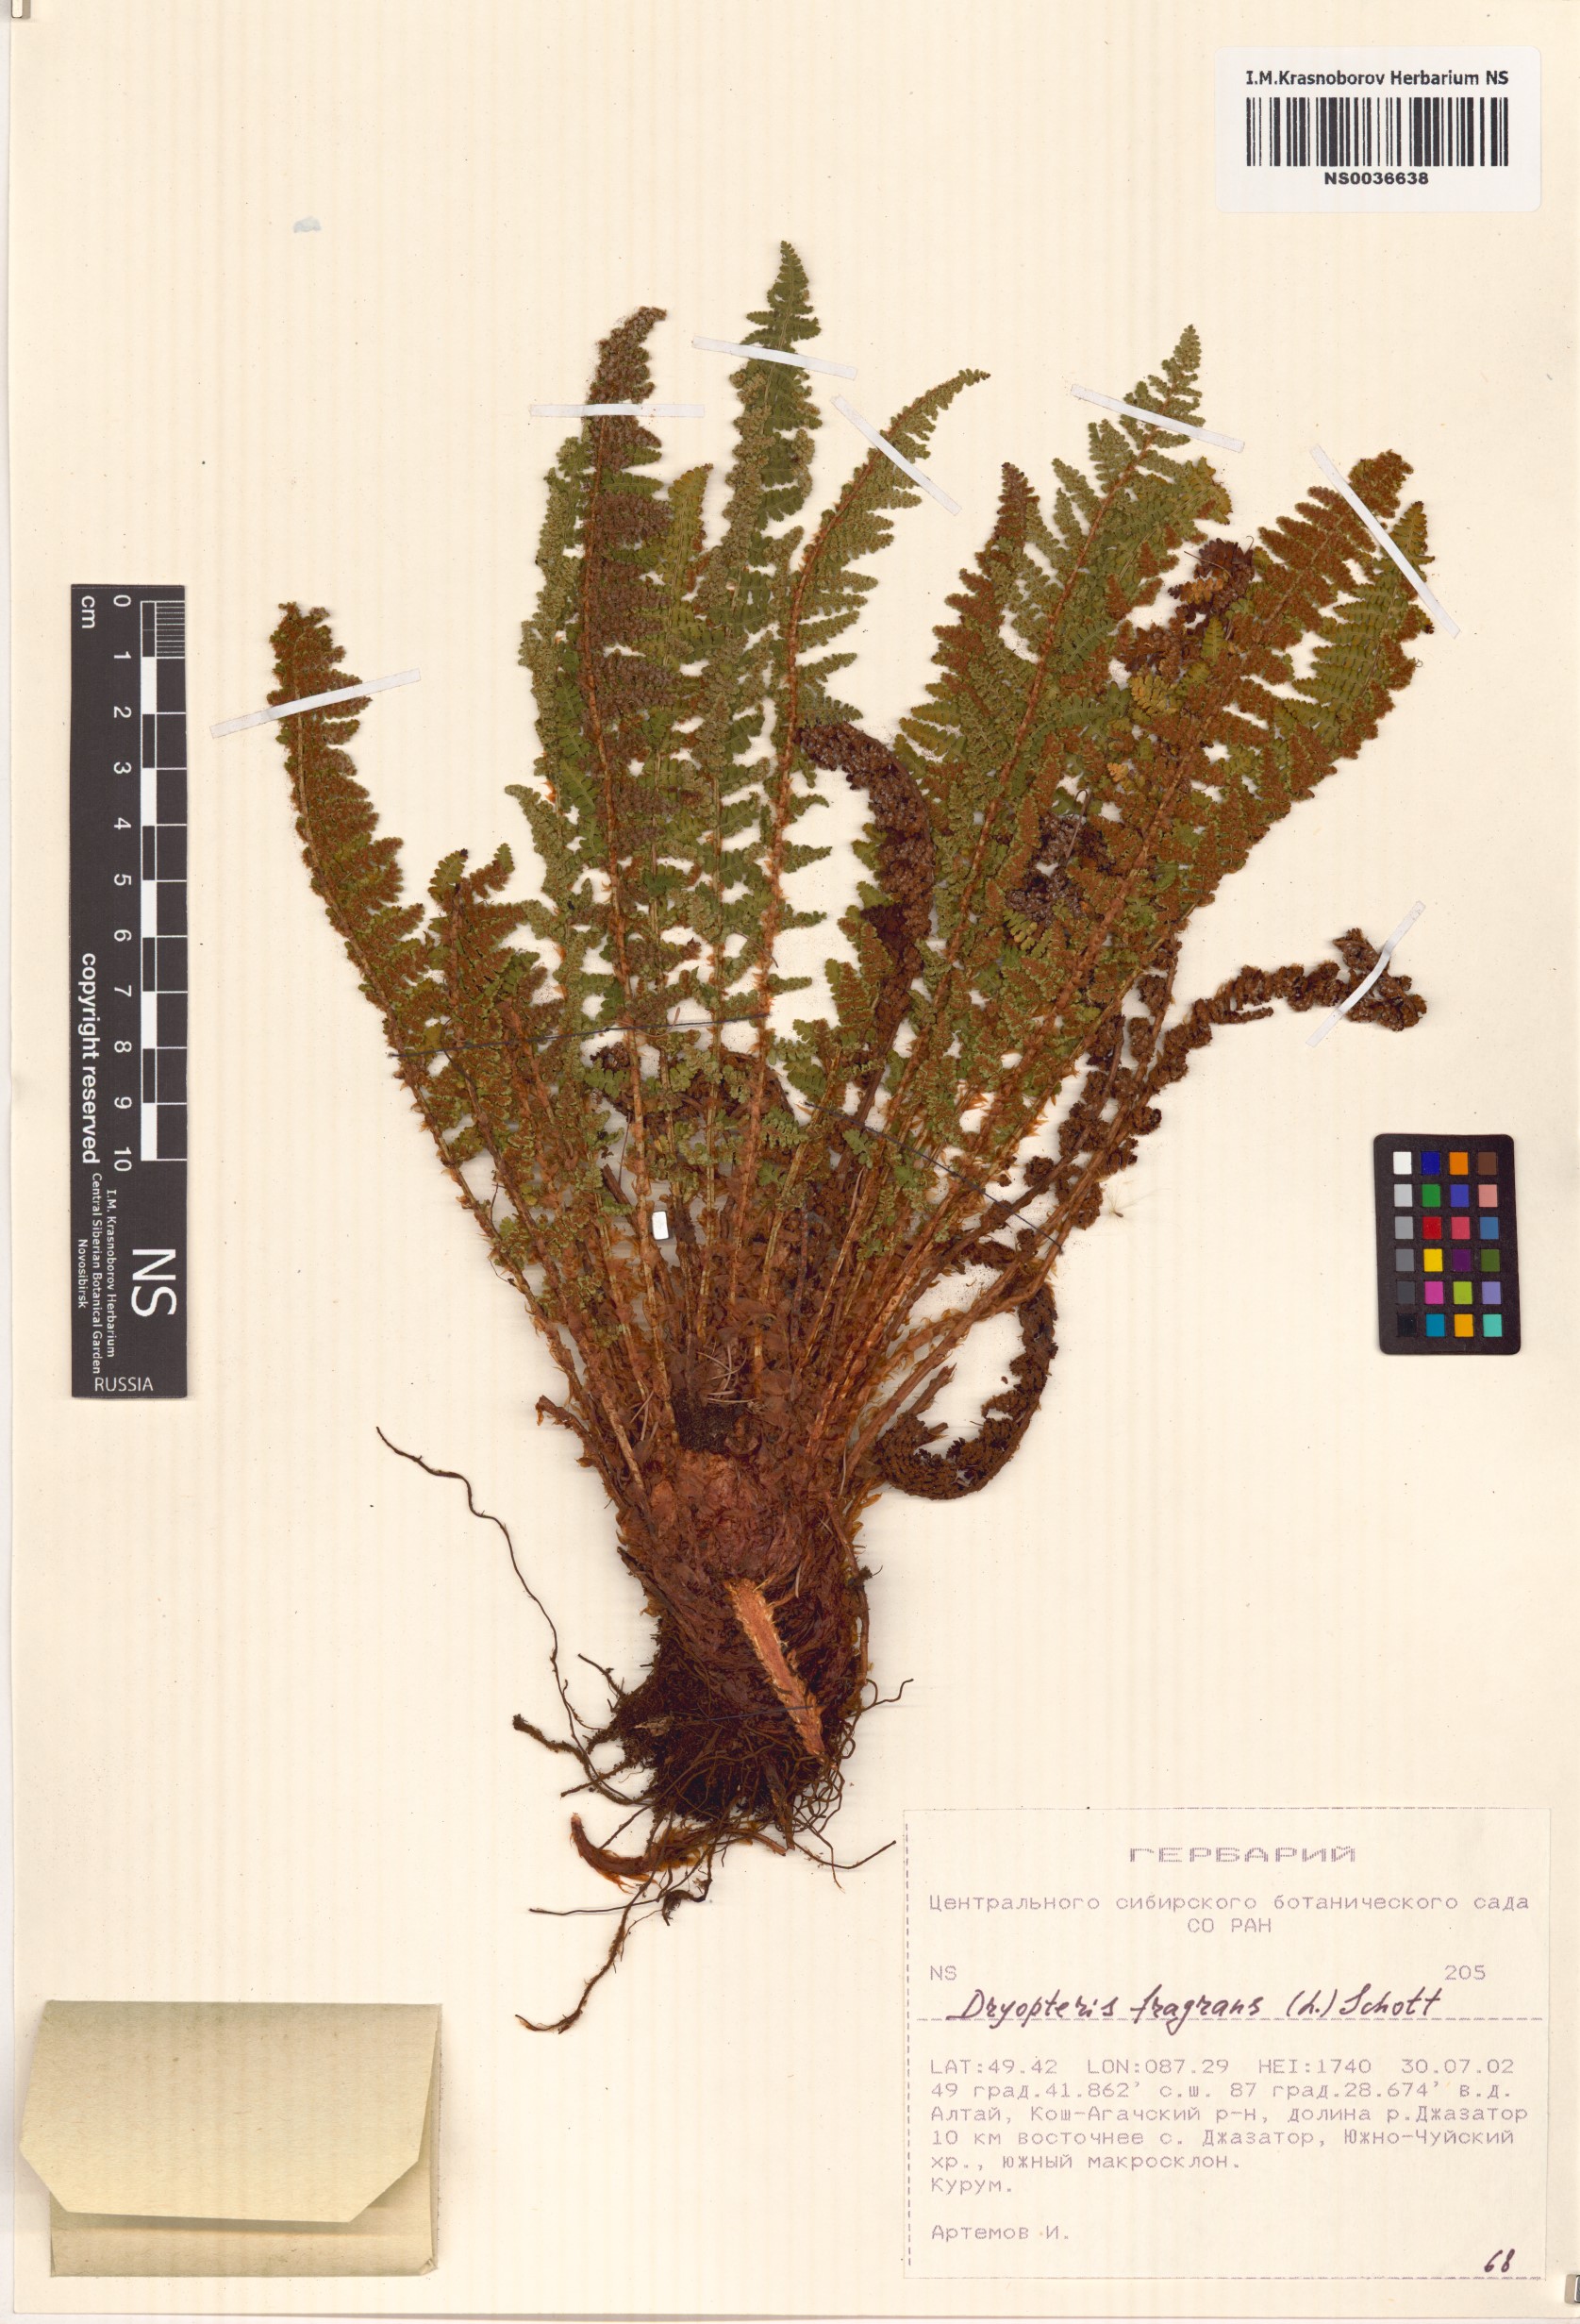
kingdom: Plantae
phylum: Tracheophyta
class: Polypodiopsida
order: Polypodiales
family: Dryopteridaceae
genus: Dryopteris
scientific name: Dryopteris fragrans
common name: Fragrant wood fern
